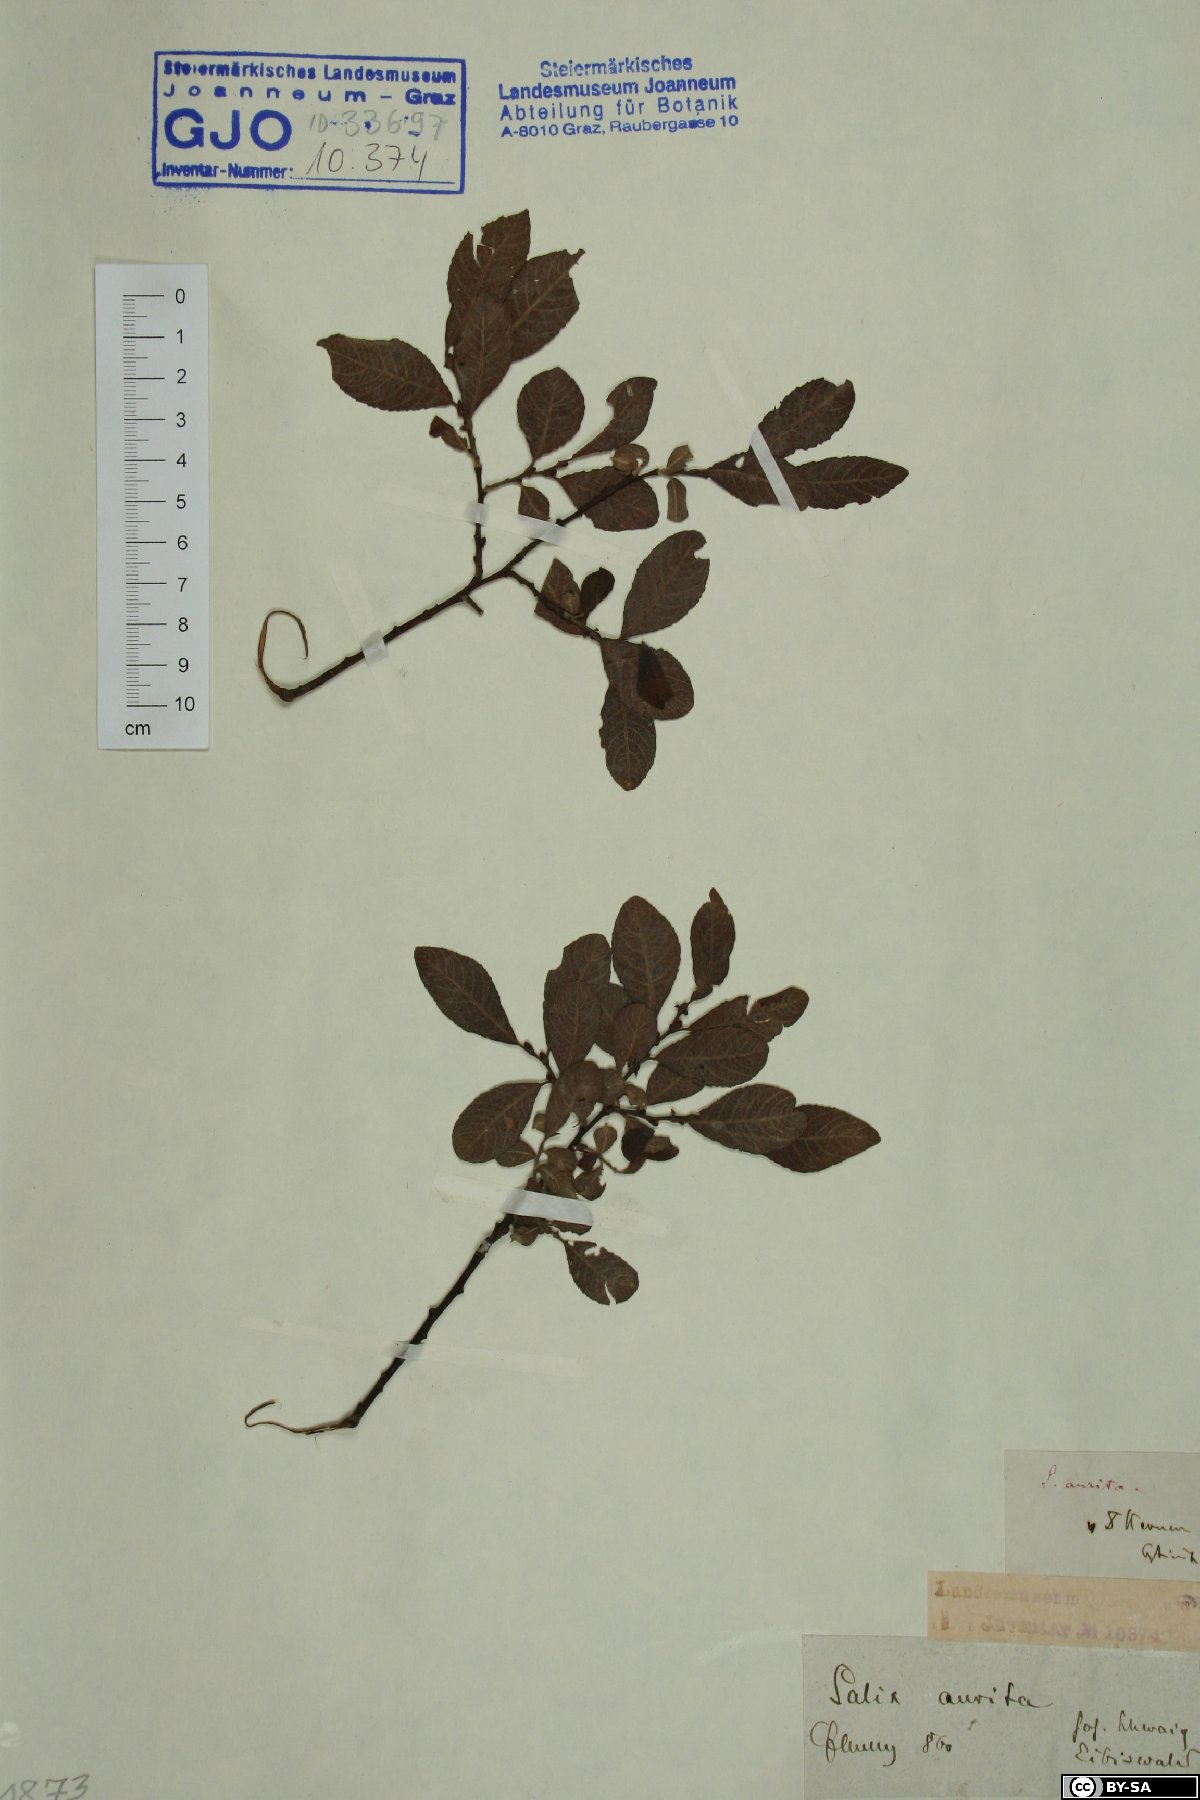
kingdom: Plantae
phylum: Tracheophyta
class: Magnoliopsida
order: Malpighiales
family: Salicaceae
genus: Salix
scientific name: Salix aurita
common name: Eared willow
